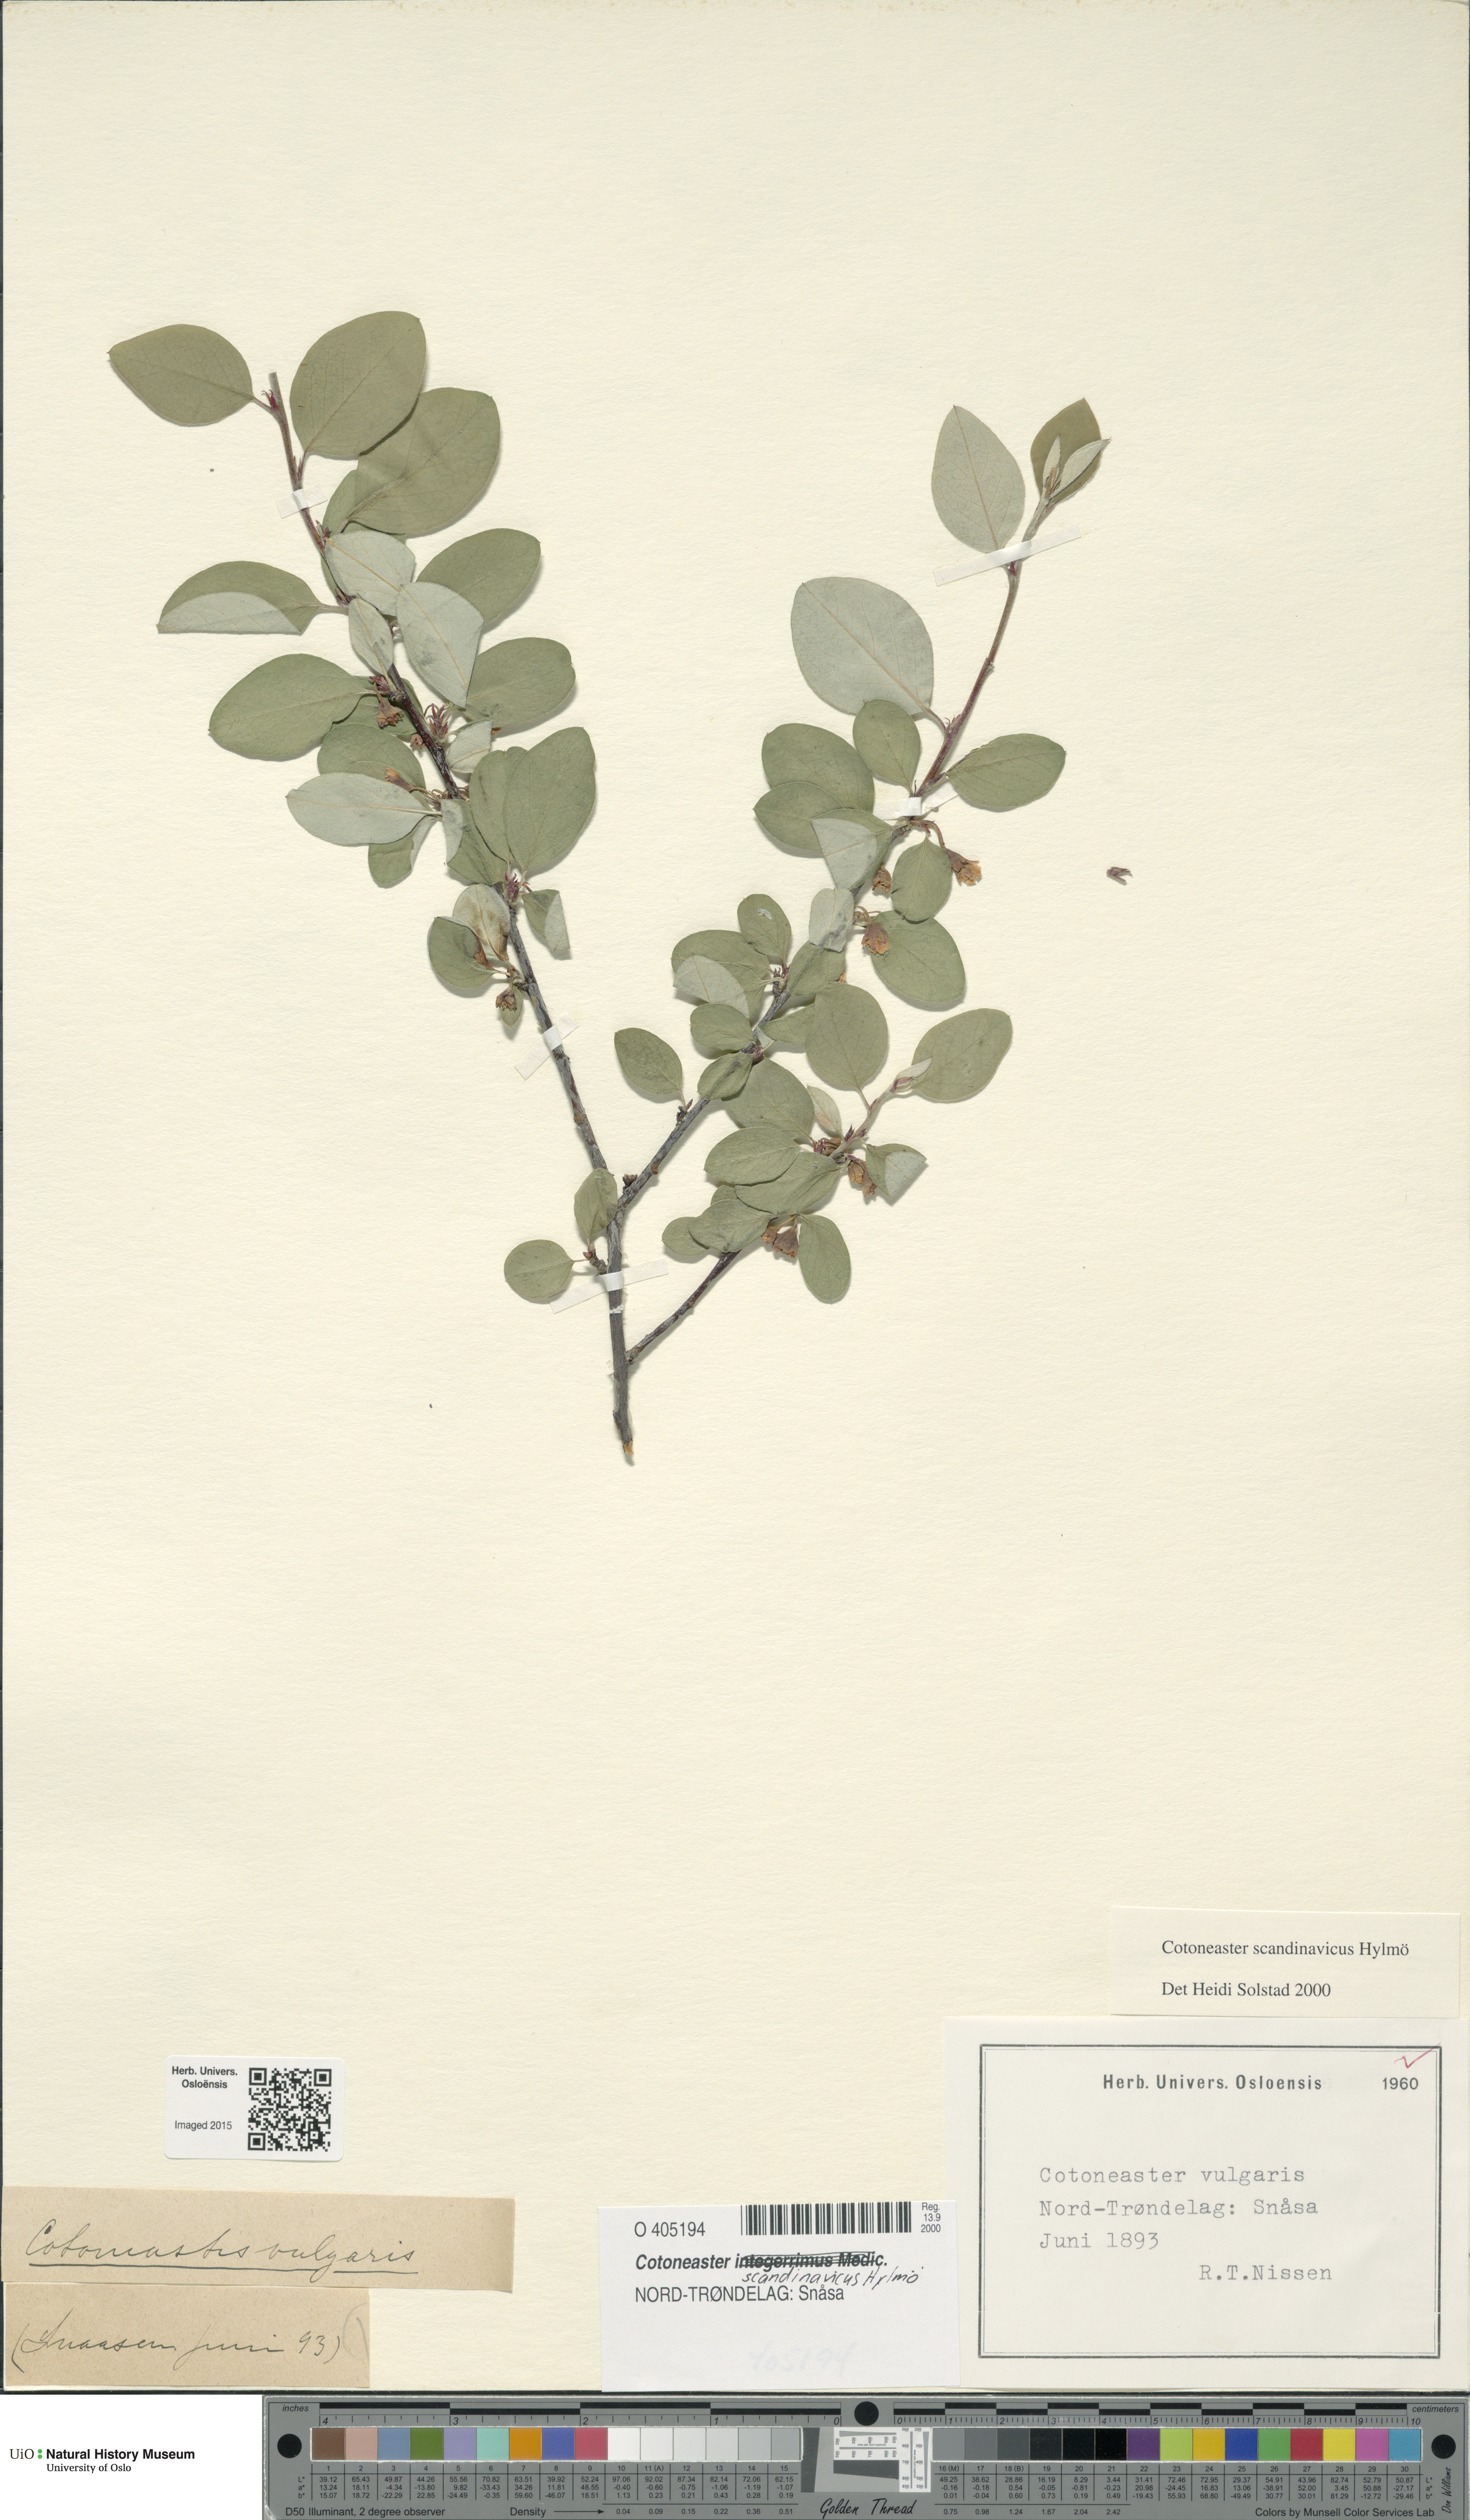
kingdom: Plantae
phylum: Tracheophyta
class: Magnoliopsida
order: Rosales
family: Rosaceae
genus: Cotoneaster
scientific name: Cotoneaster integerrimus
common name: Wild cotoneaster
